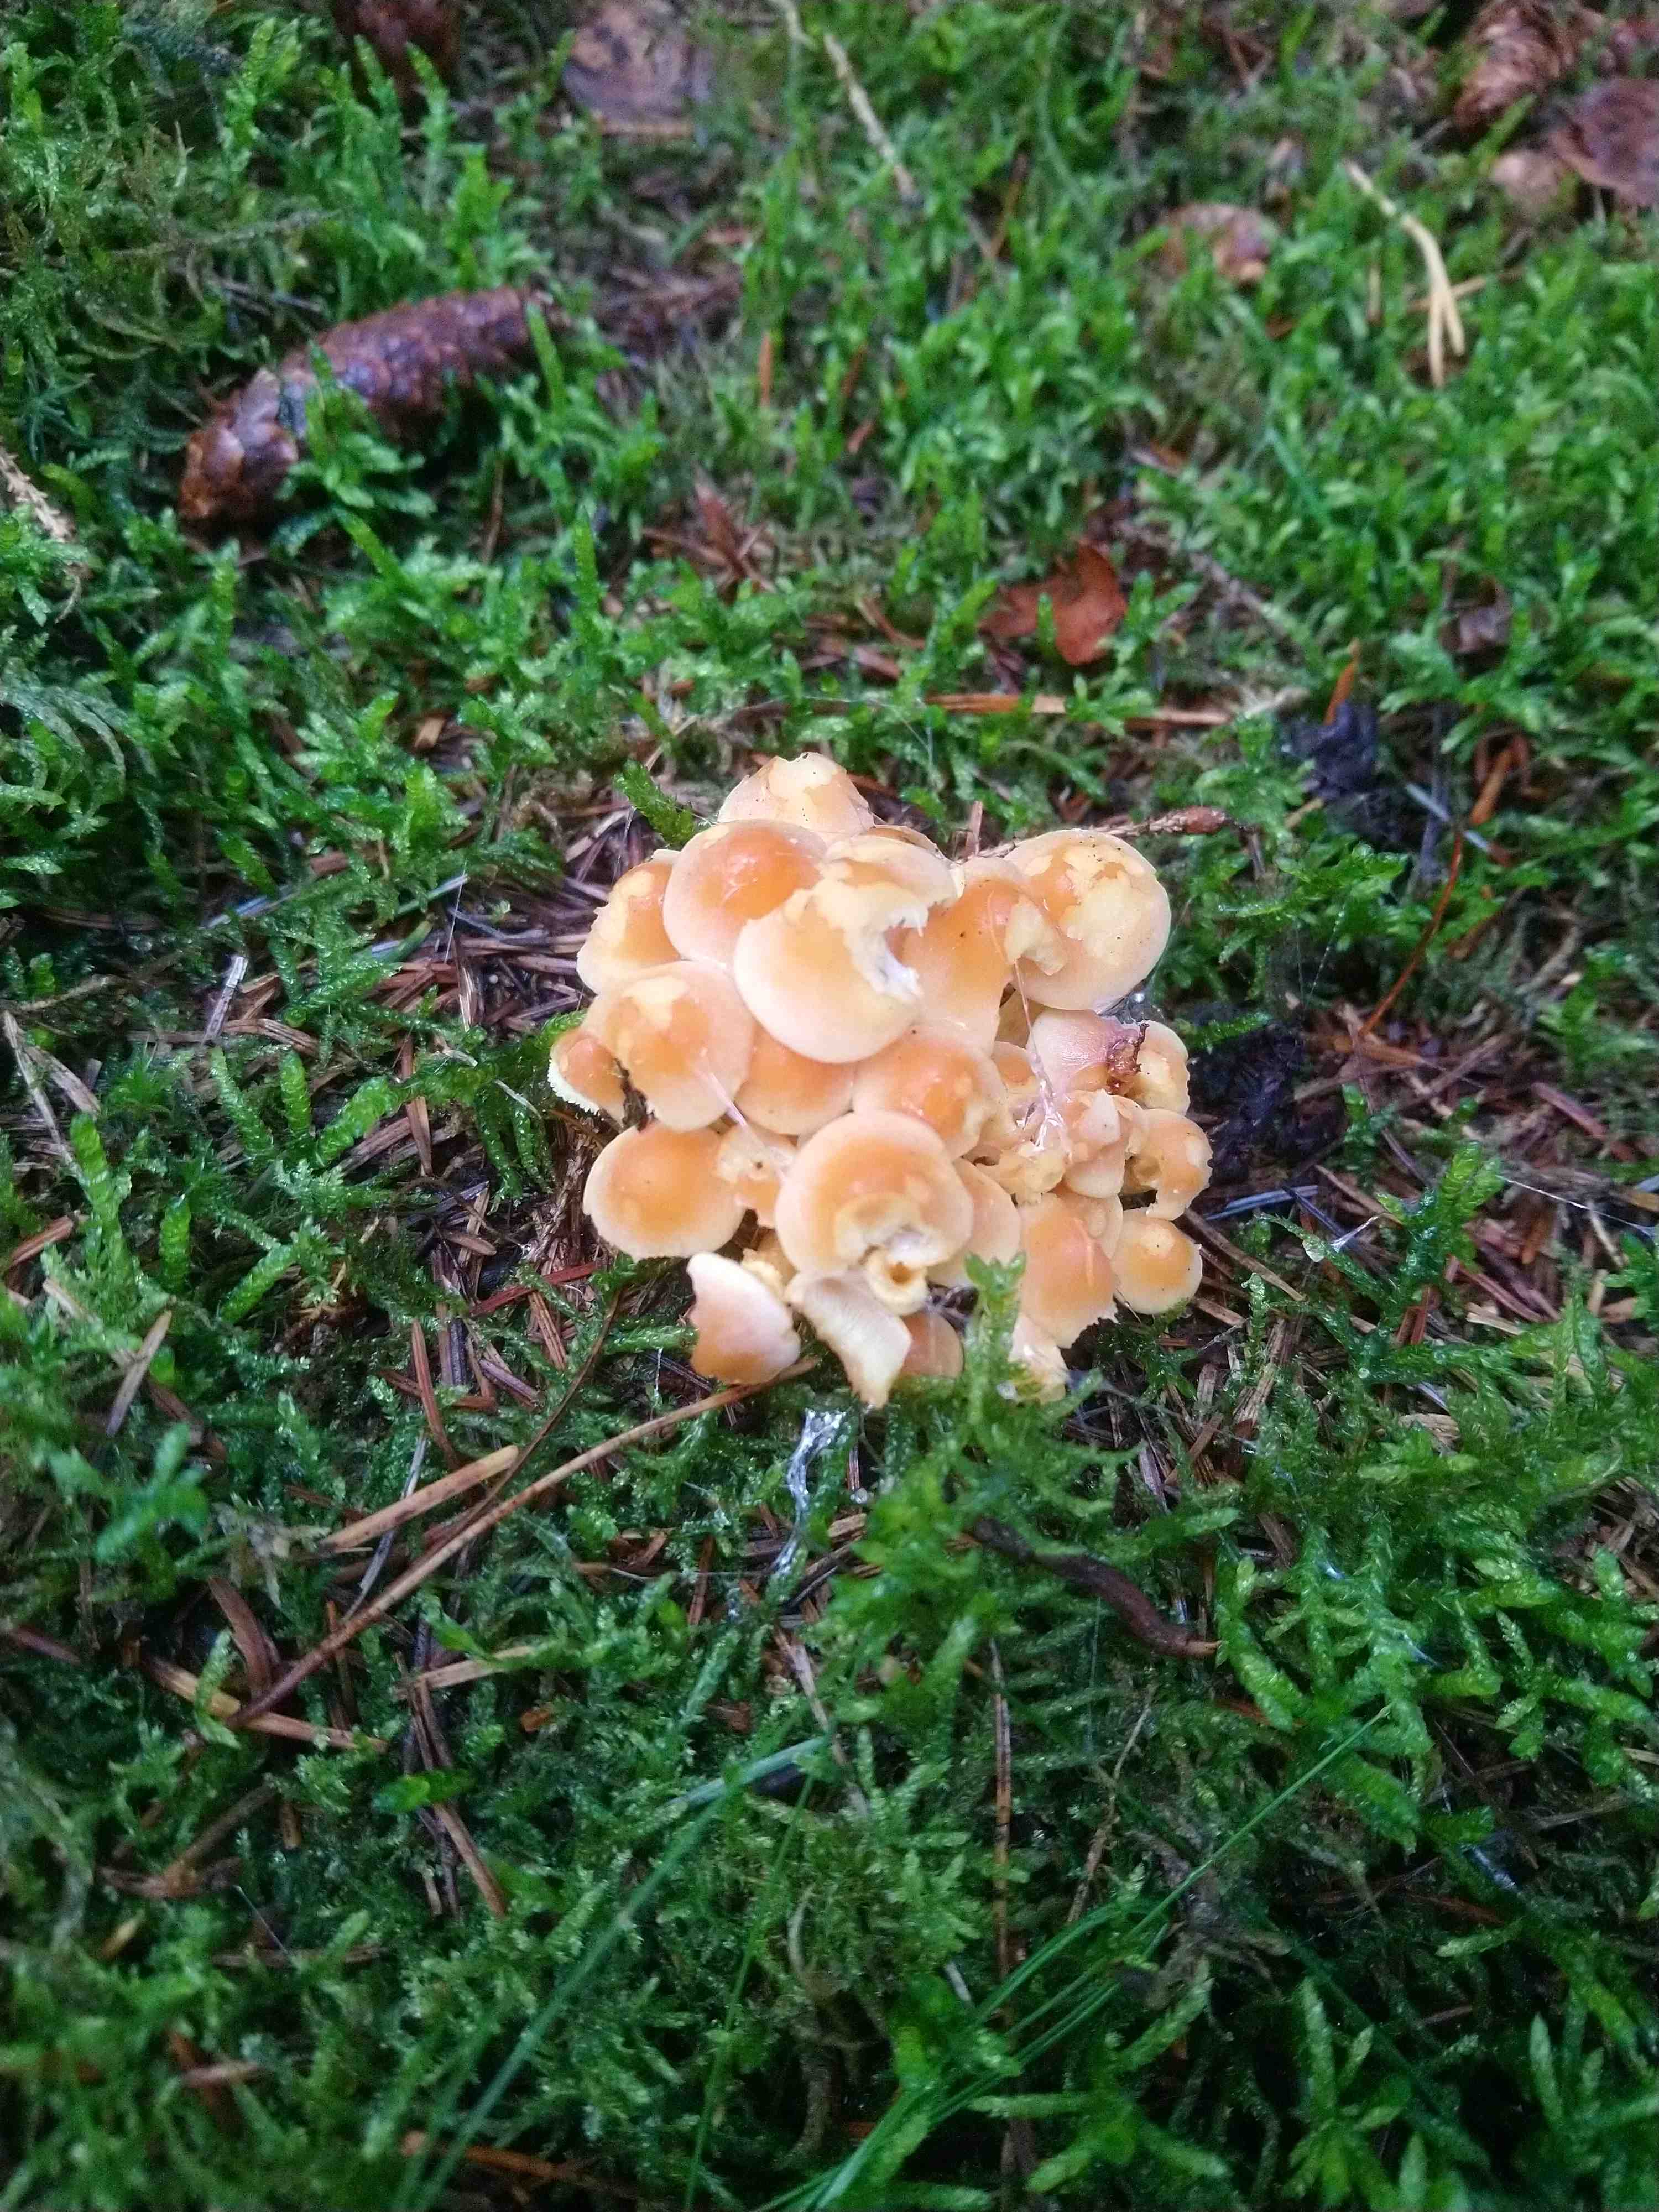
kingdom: Fungi
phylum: Basidiomycota
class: Agaricomycetes
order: Agaricales
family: Strophariaceae
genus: Hypholoma
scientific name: Hypholoma fasciculare
